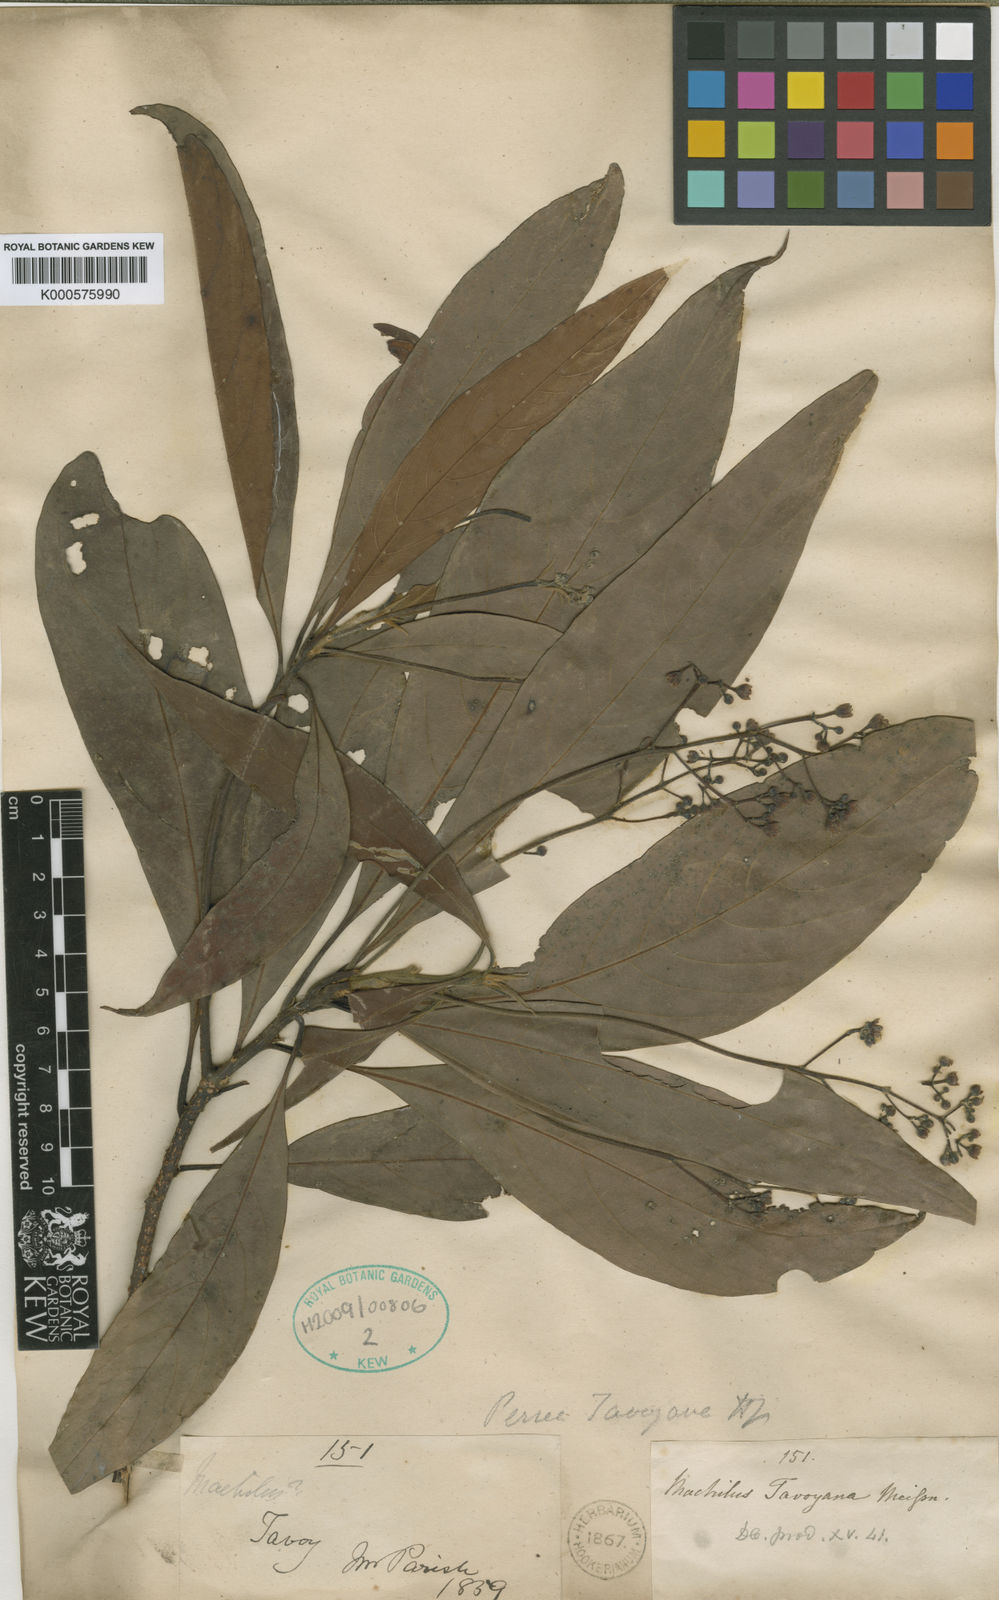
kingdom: Plantae
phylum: Tracheophyta
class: Magnoliopsida
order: Laurales
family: Lauraceae
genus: Phoebe
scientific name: Phoebe lanceolata
